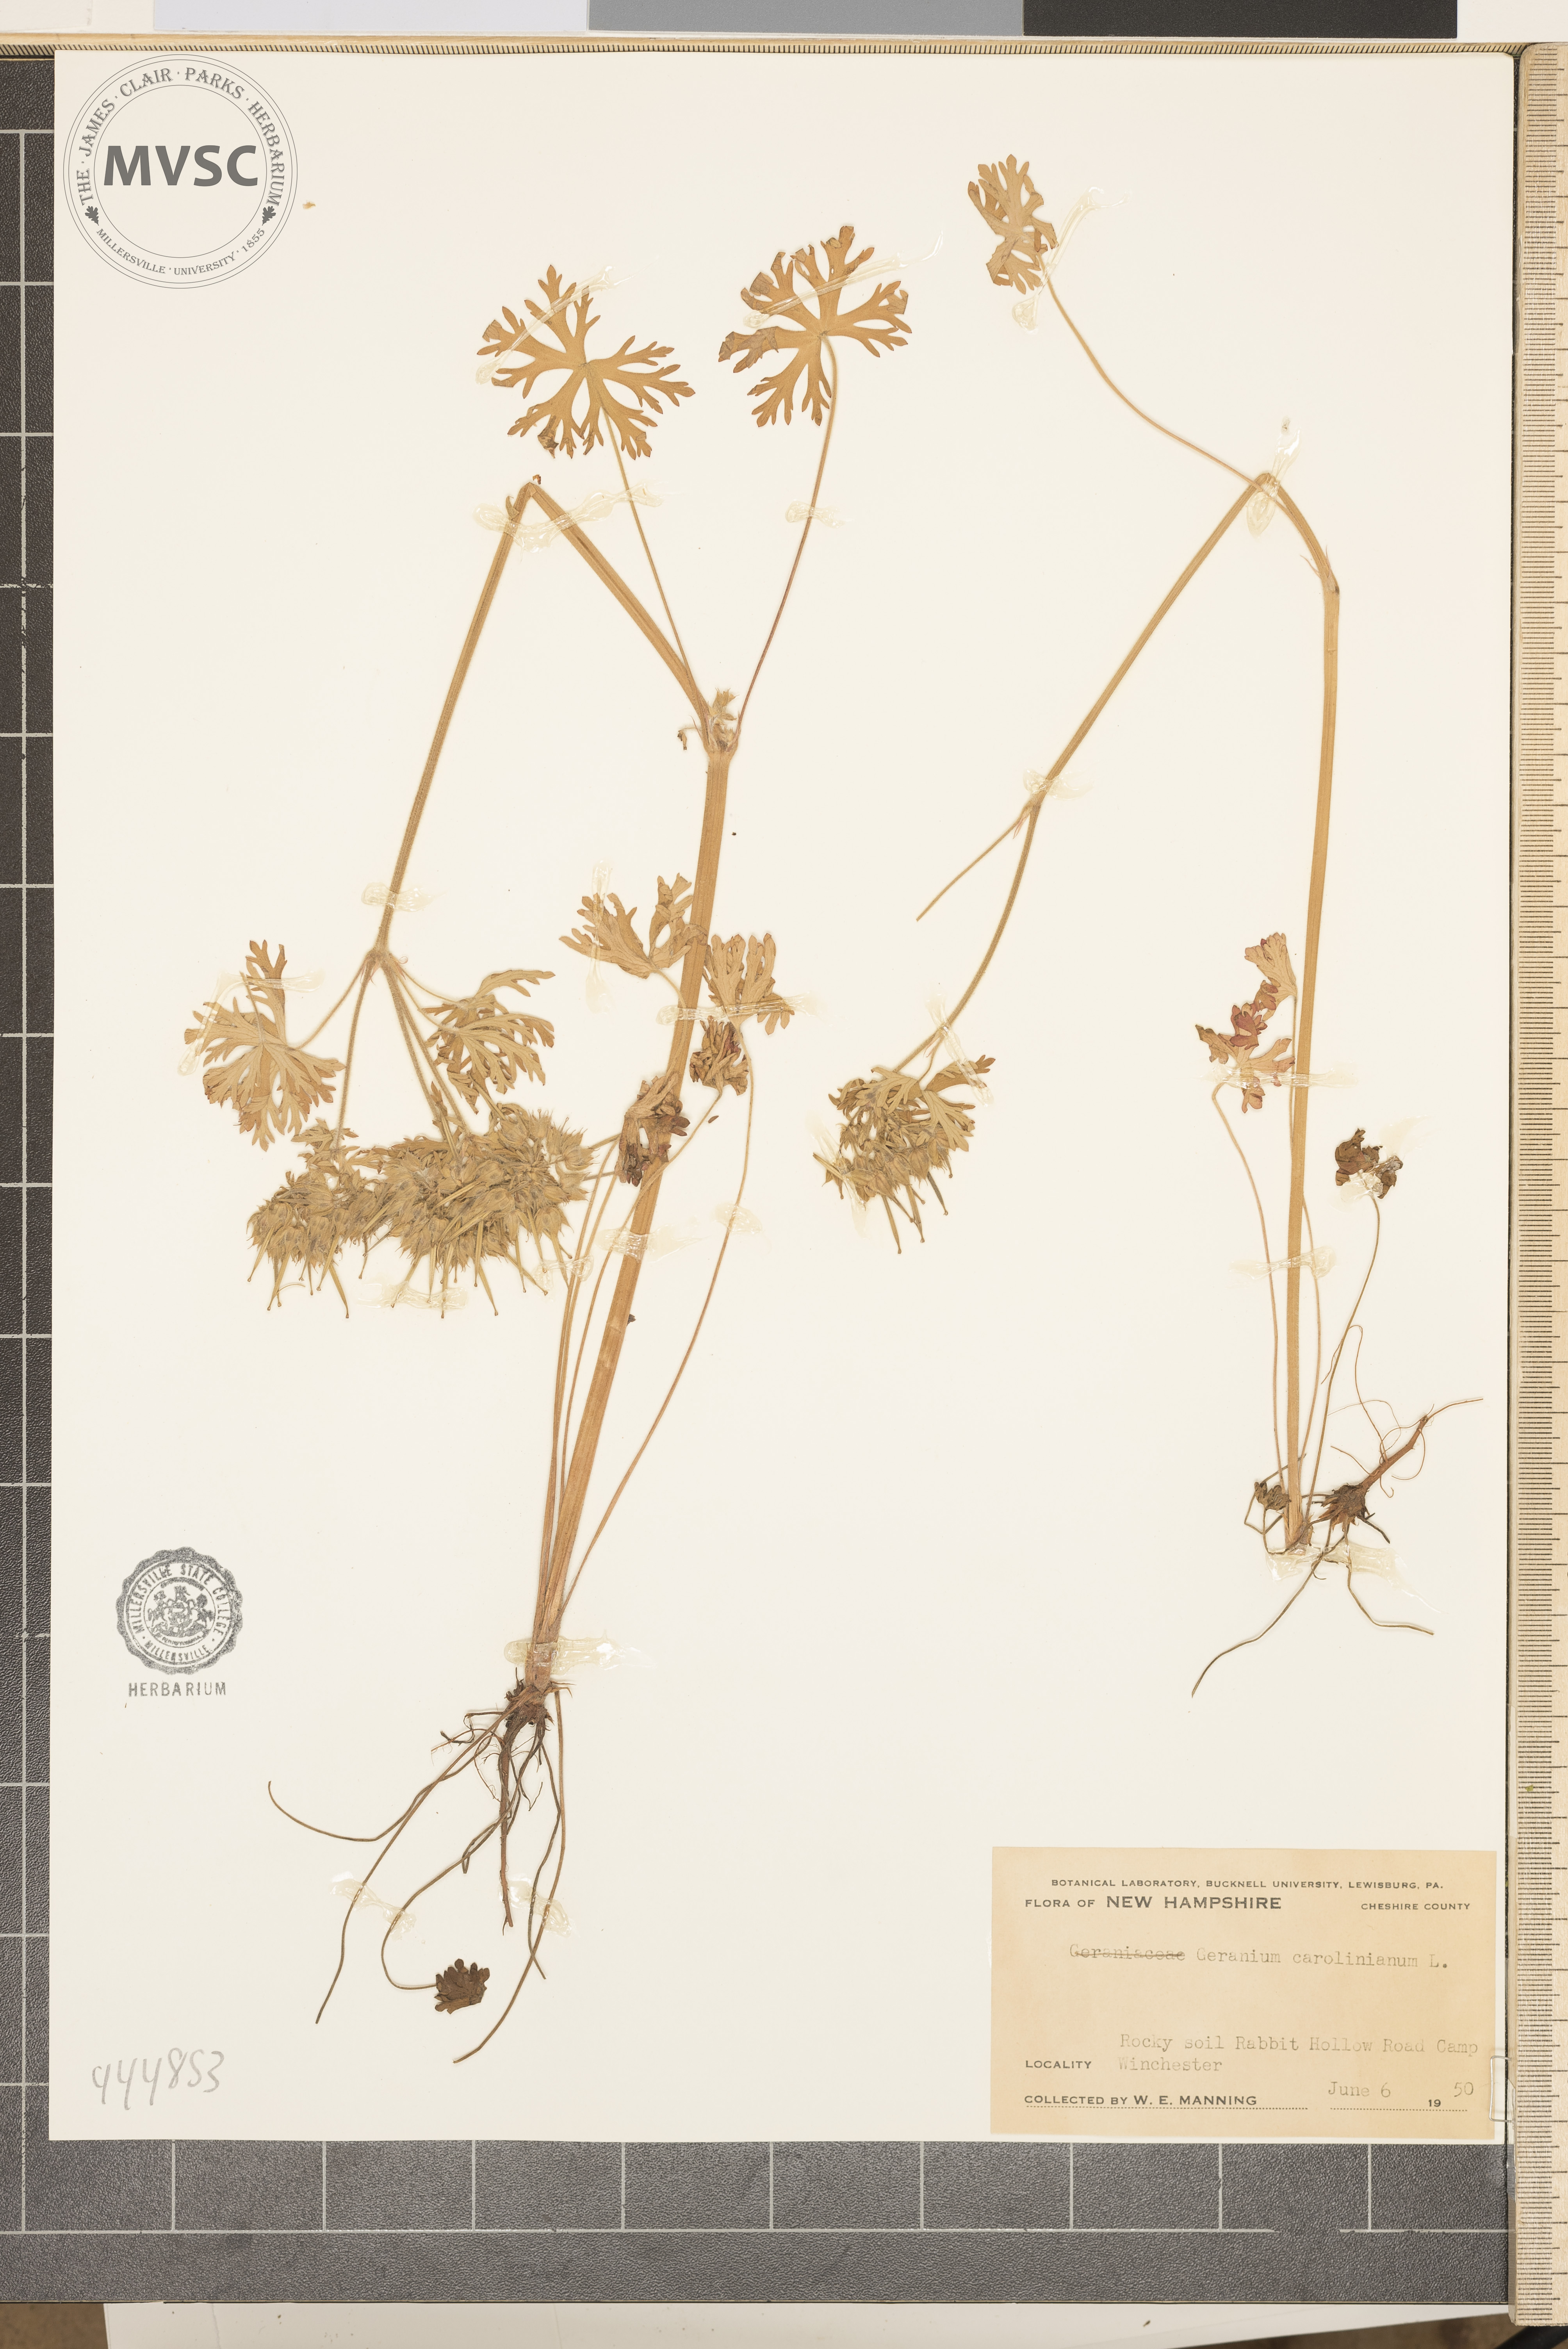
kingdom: Plantae
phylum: Tracheophyta
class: Magnoliopsida
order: Geraniales
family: Geraniaceae
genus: Geranium
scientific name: Geranium carolinianum
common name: Carolina crane's-bill
